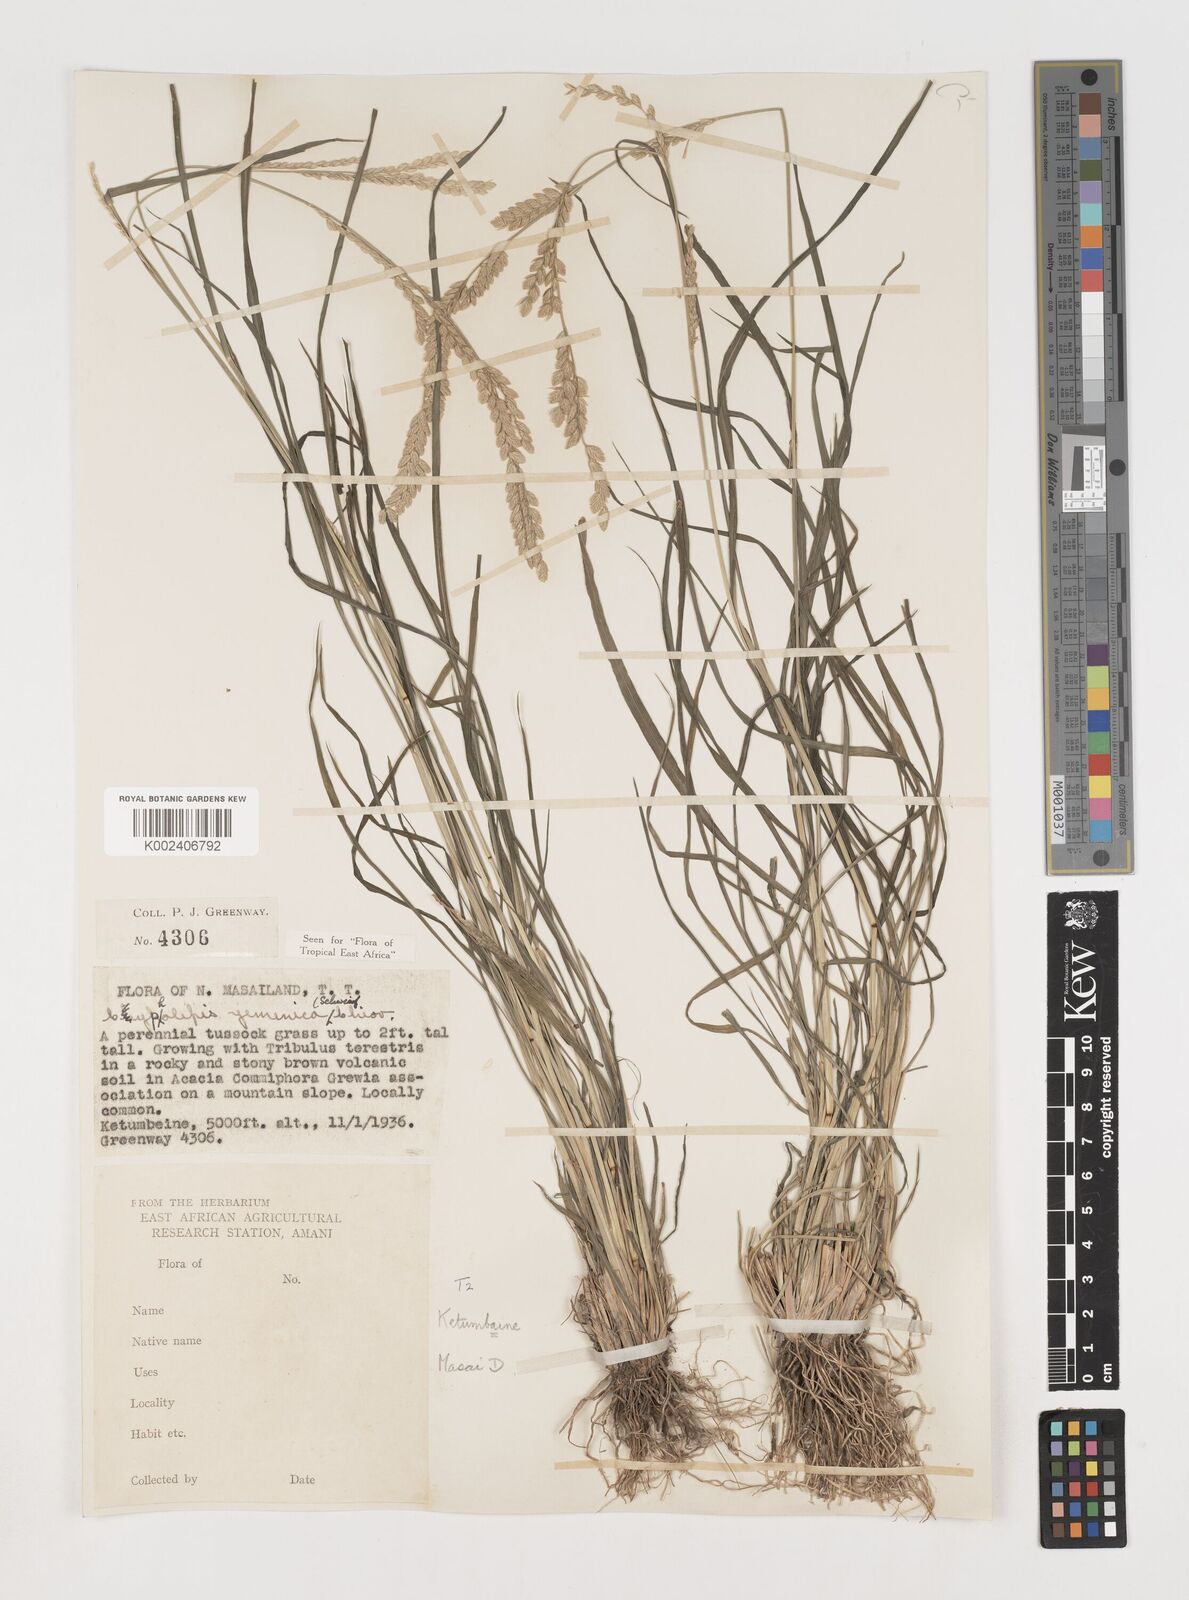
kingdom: Plantae
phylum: Tracheophyta
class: Liliopsida
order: Poales
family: Poaceae
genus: Disakisperma
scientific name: Disakisperma yemenicum
